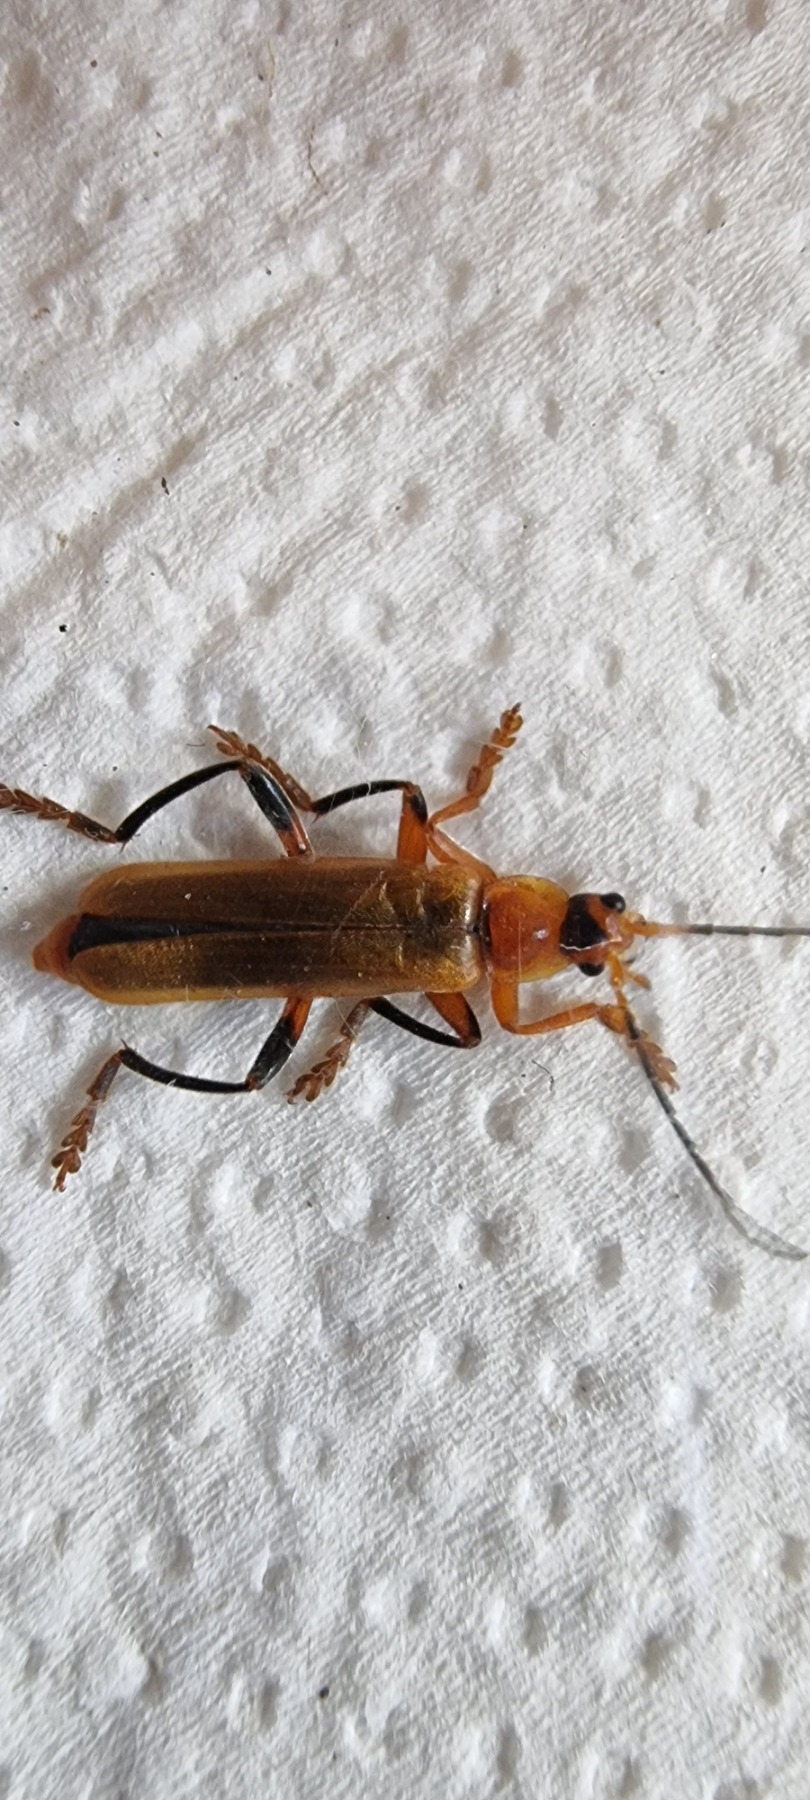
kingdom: Animalia
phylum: Arthropoda
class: Insecta
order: Coleoptera
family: Cantharidae
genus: Cantharis
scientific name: Cantharis livida
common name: Gul blødvinge
